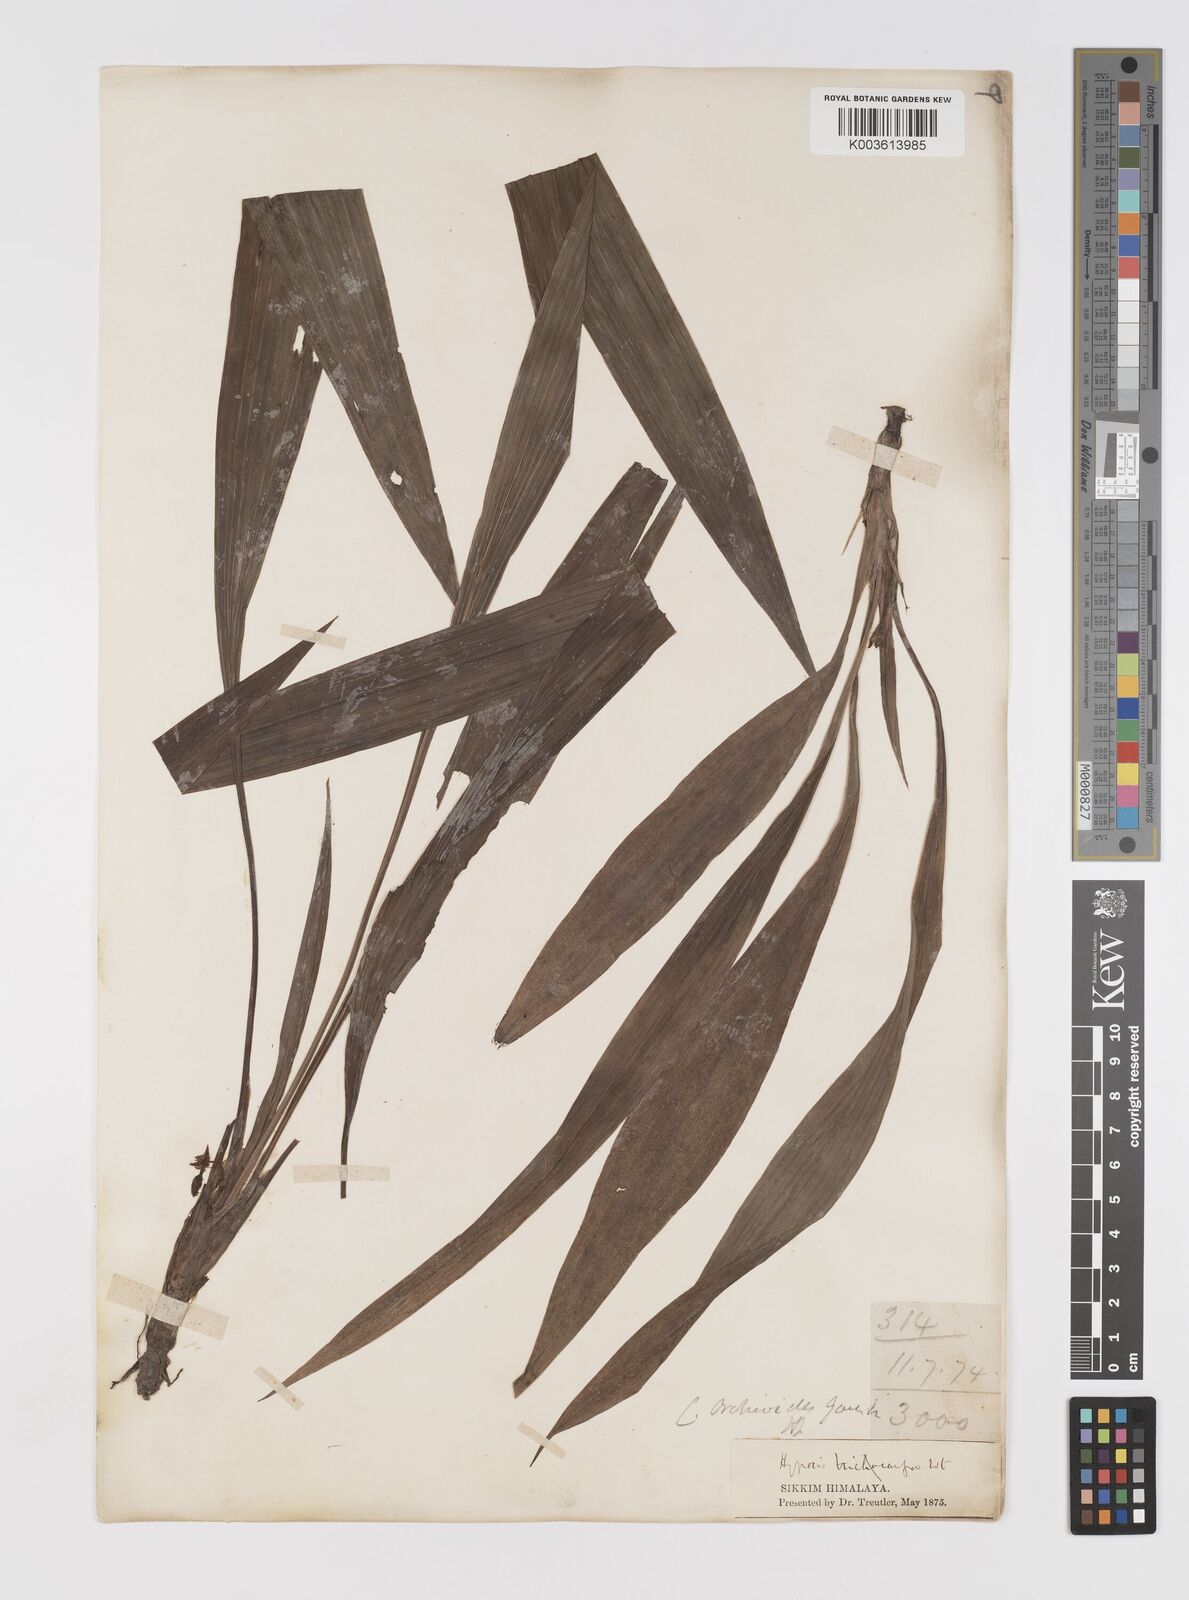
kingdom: Plantae
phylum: Tracheophyta
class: Liliopsida
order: Asparagales
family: Hypoxidaceae
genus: Curculigo
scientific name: Curculigo orchioides
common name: Golden eye-grass
